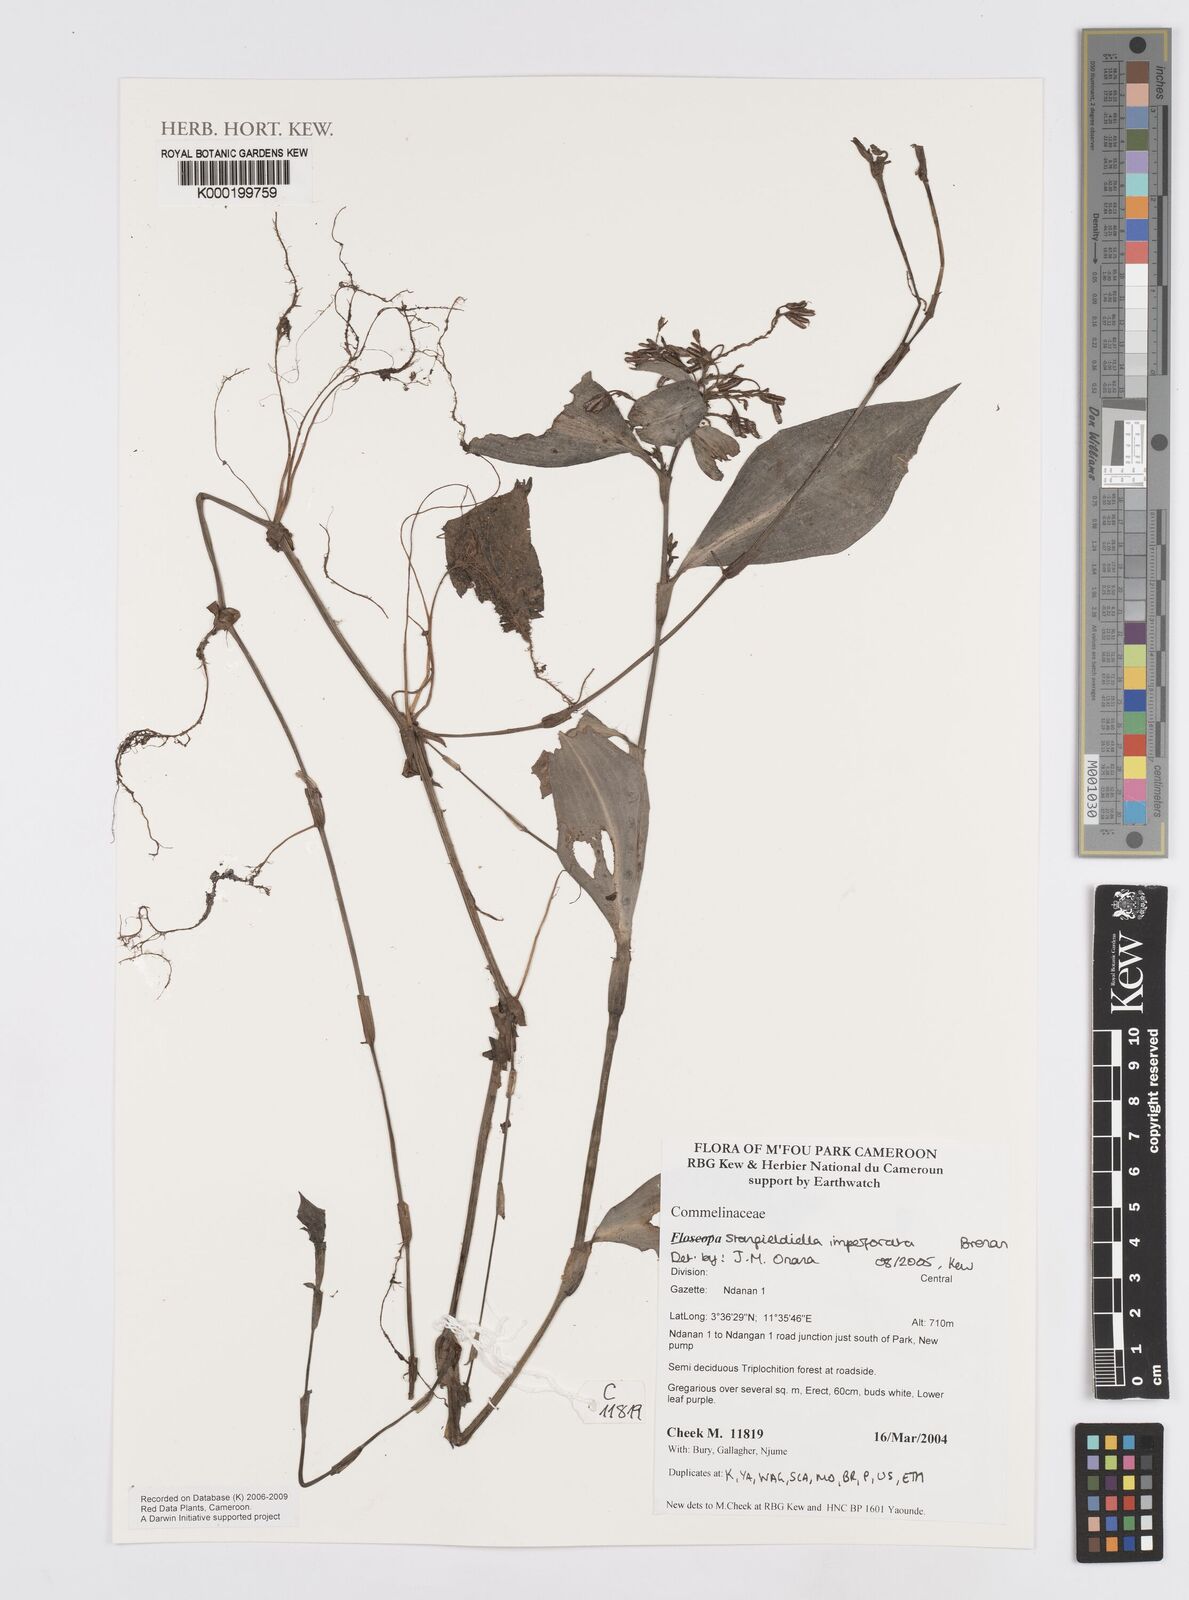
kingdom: Plantae
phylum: Tracheophyta
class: Liliopsida
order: Commelinales
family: Commelinaceae
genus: Stanfieldiella
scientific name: Stanfieldiella imperforata
